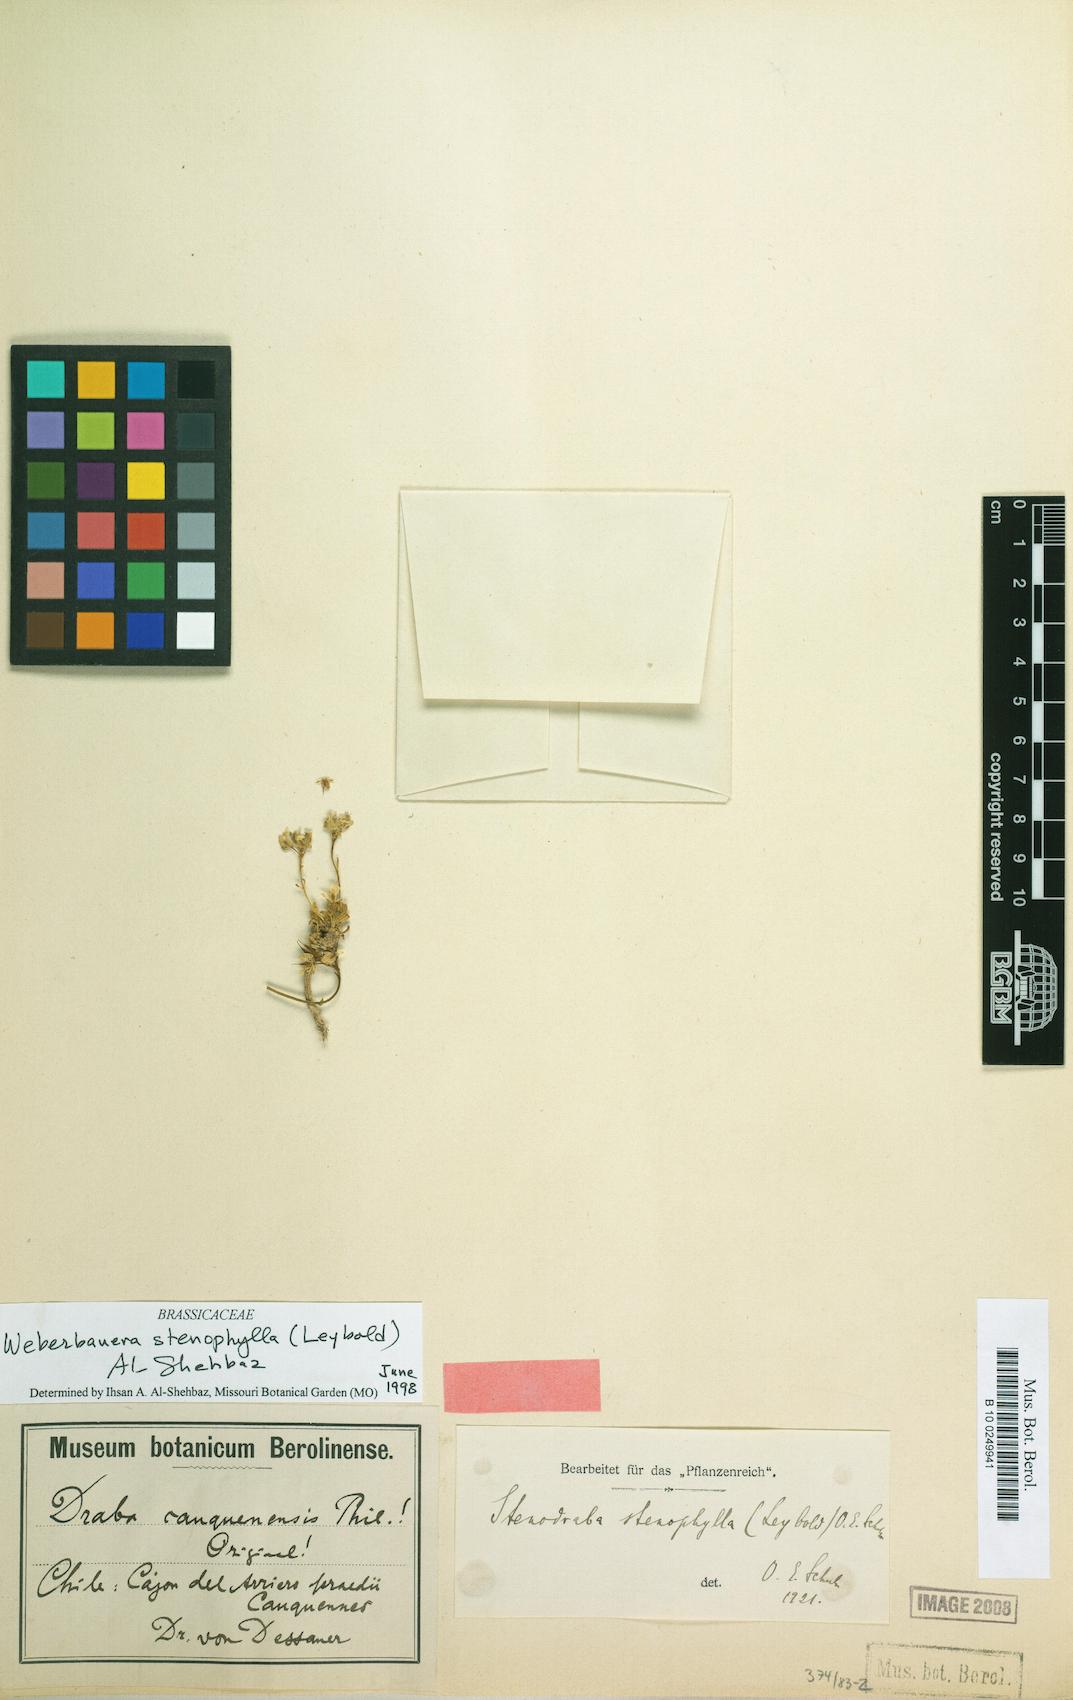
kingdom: Plantae
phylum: Tracheophyta
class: Magnoliopsida
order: Brassicales
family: Brassicaceae
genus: Stenodraba
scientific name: Stenodraba stenophylla
